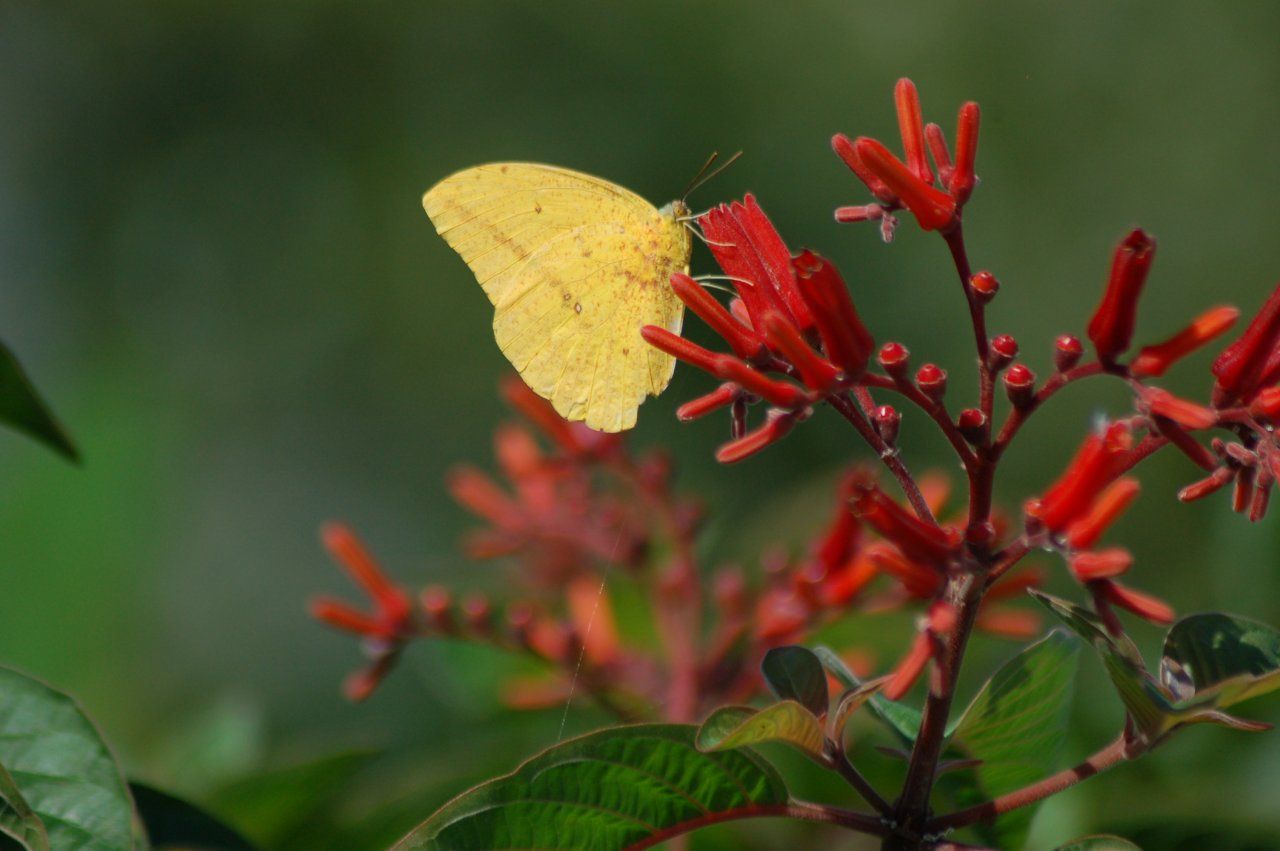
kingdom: Animalia
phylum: Arthropoda
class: Insecta
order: Lepidoptera
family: Pieridae
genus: Phoebis
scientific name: Phoebis agarithe
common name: Large Orange Sulphur
